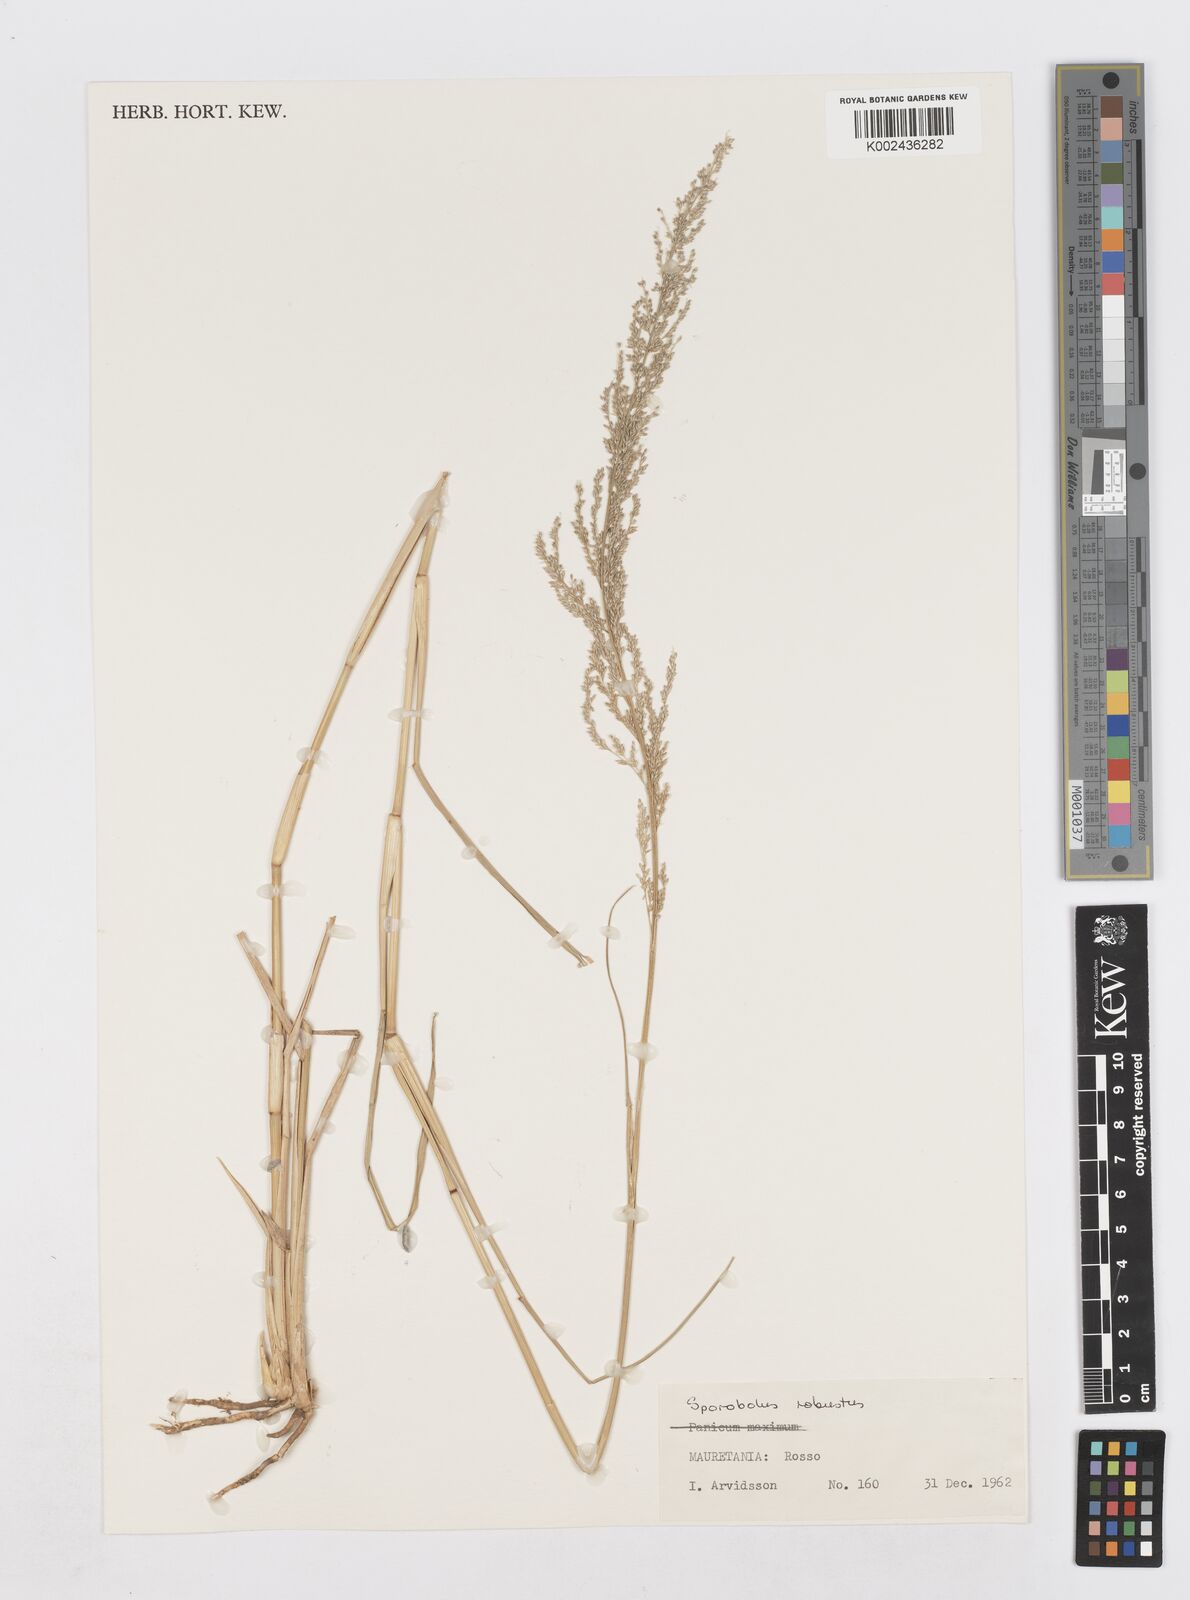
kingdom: Plantae
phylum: Tracheophyta
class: Liliopsida
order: Poales
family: Poaceae
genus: Sporobolus
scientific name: Sporobolus robustus
